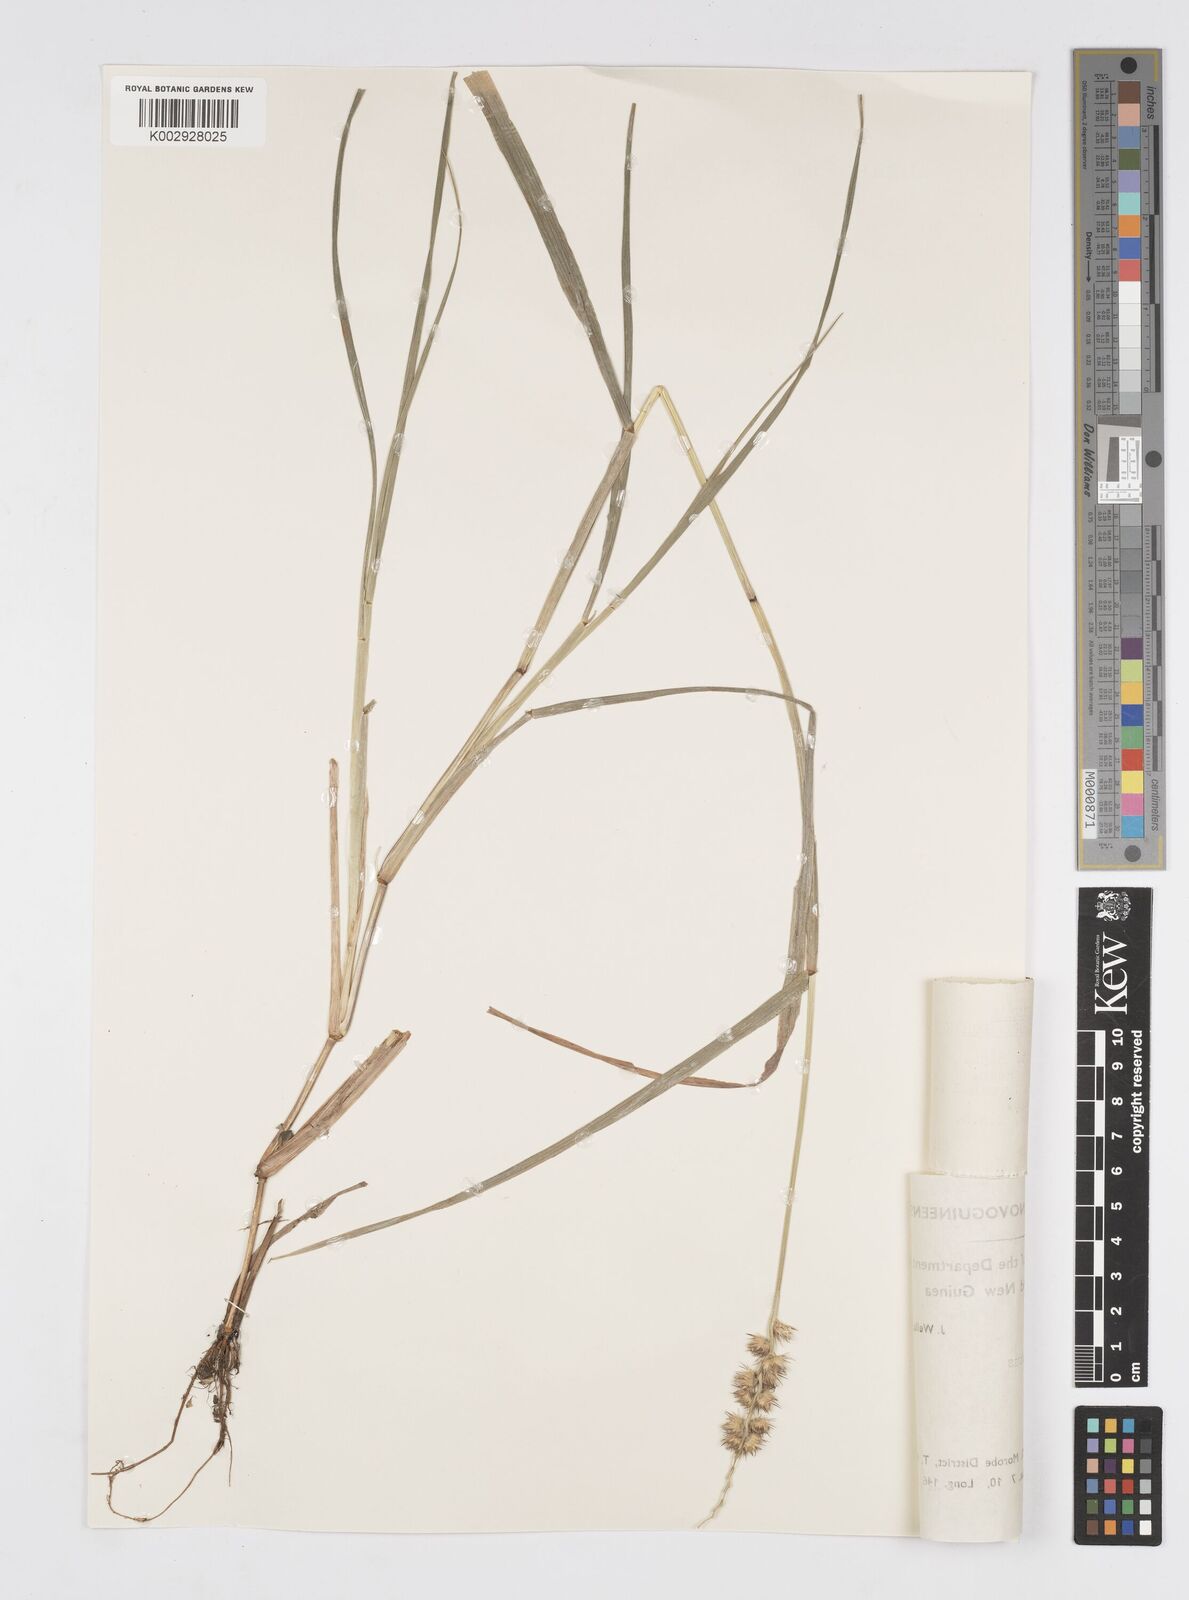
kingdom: Plantae
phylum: Tracheophyta
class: Liliopsida
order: Poales
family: Poaceae
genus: Cenchrus
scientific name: Cenchrus brownii
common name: Slim-bristle sandbur
